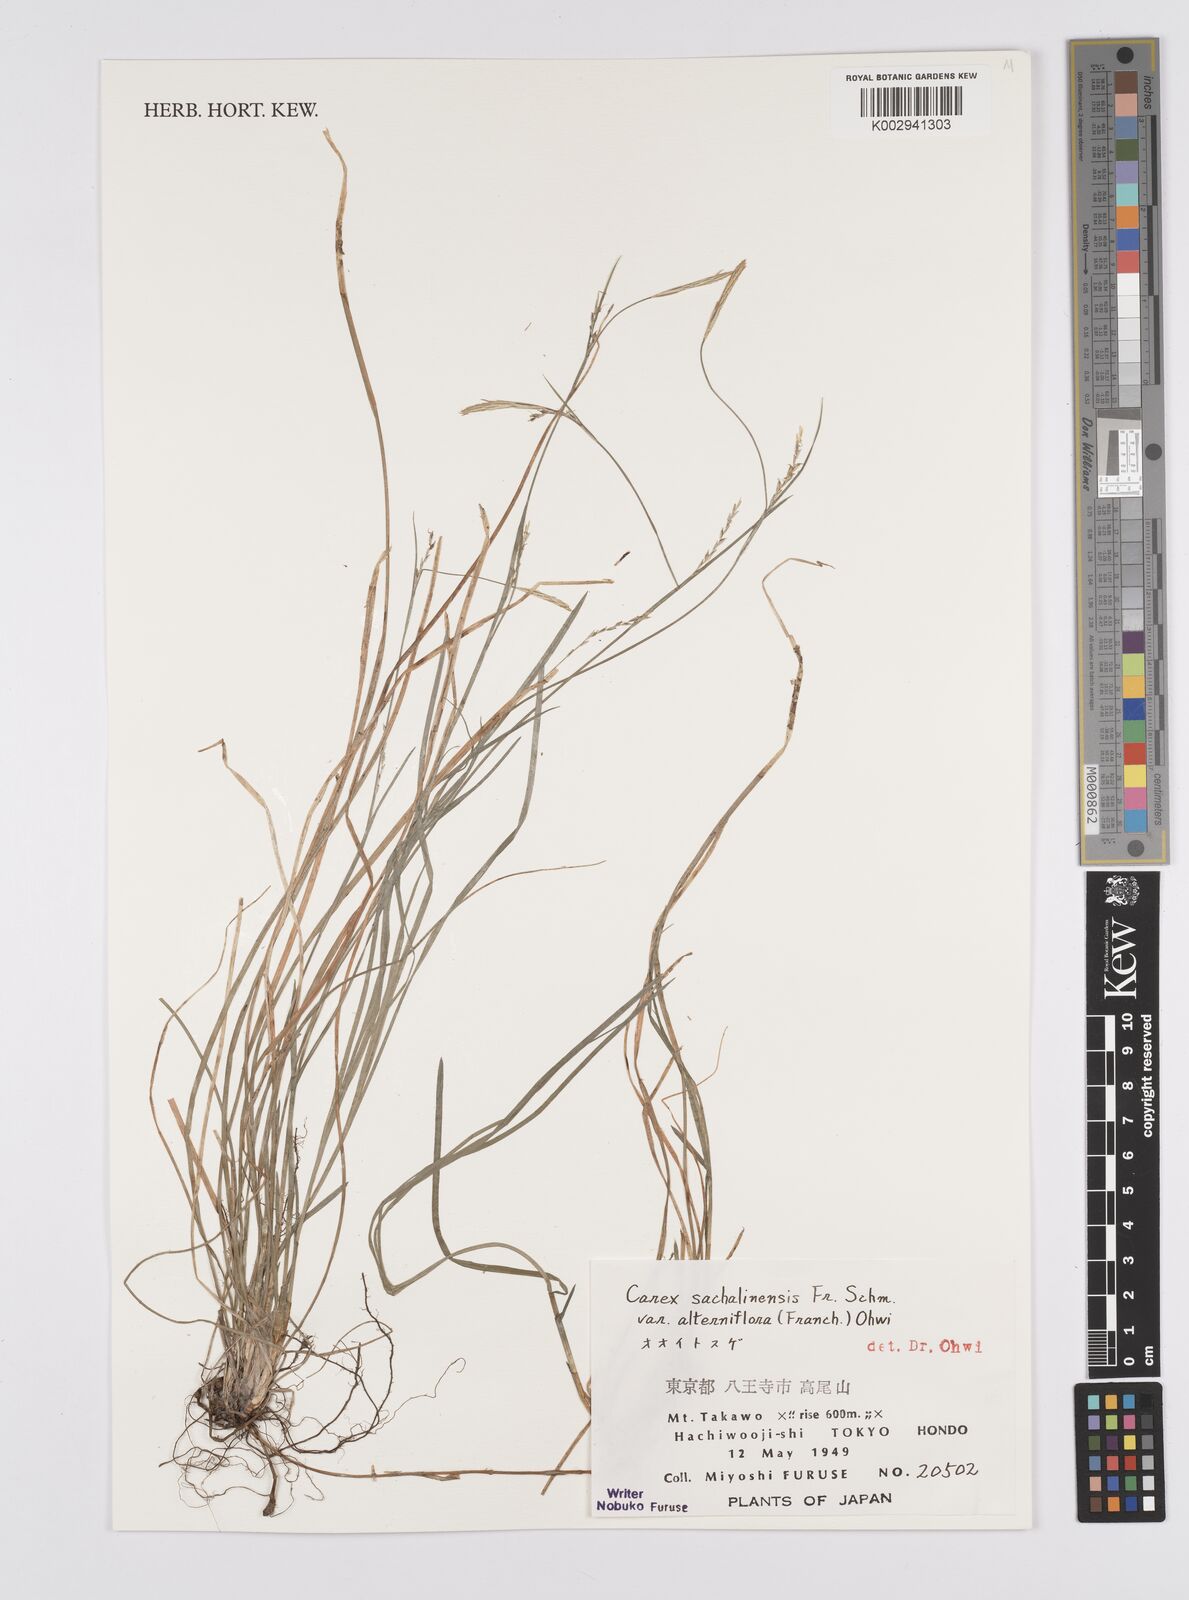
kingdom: Plantae
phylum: Tracheophyta
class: Liliopsida
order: Poales
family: Cyperaceae
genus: Carex
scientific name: Carex pisiformis
